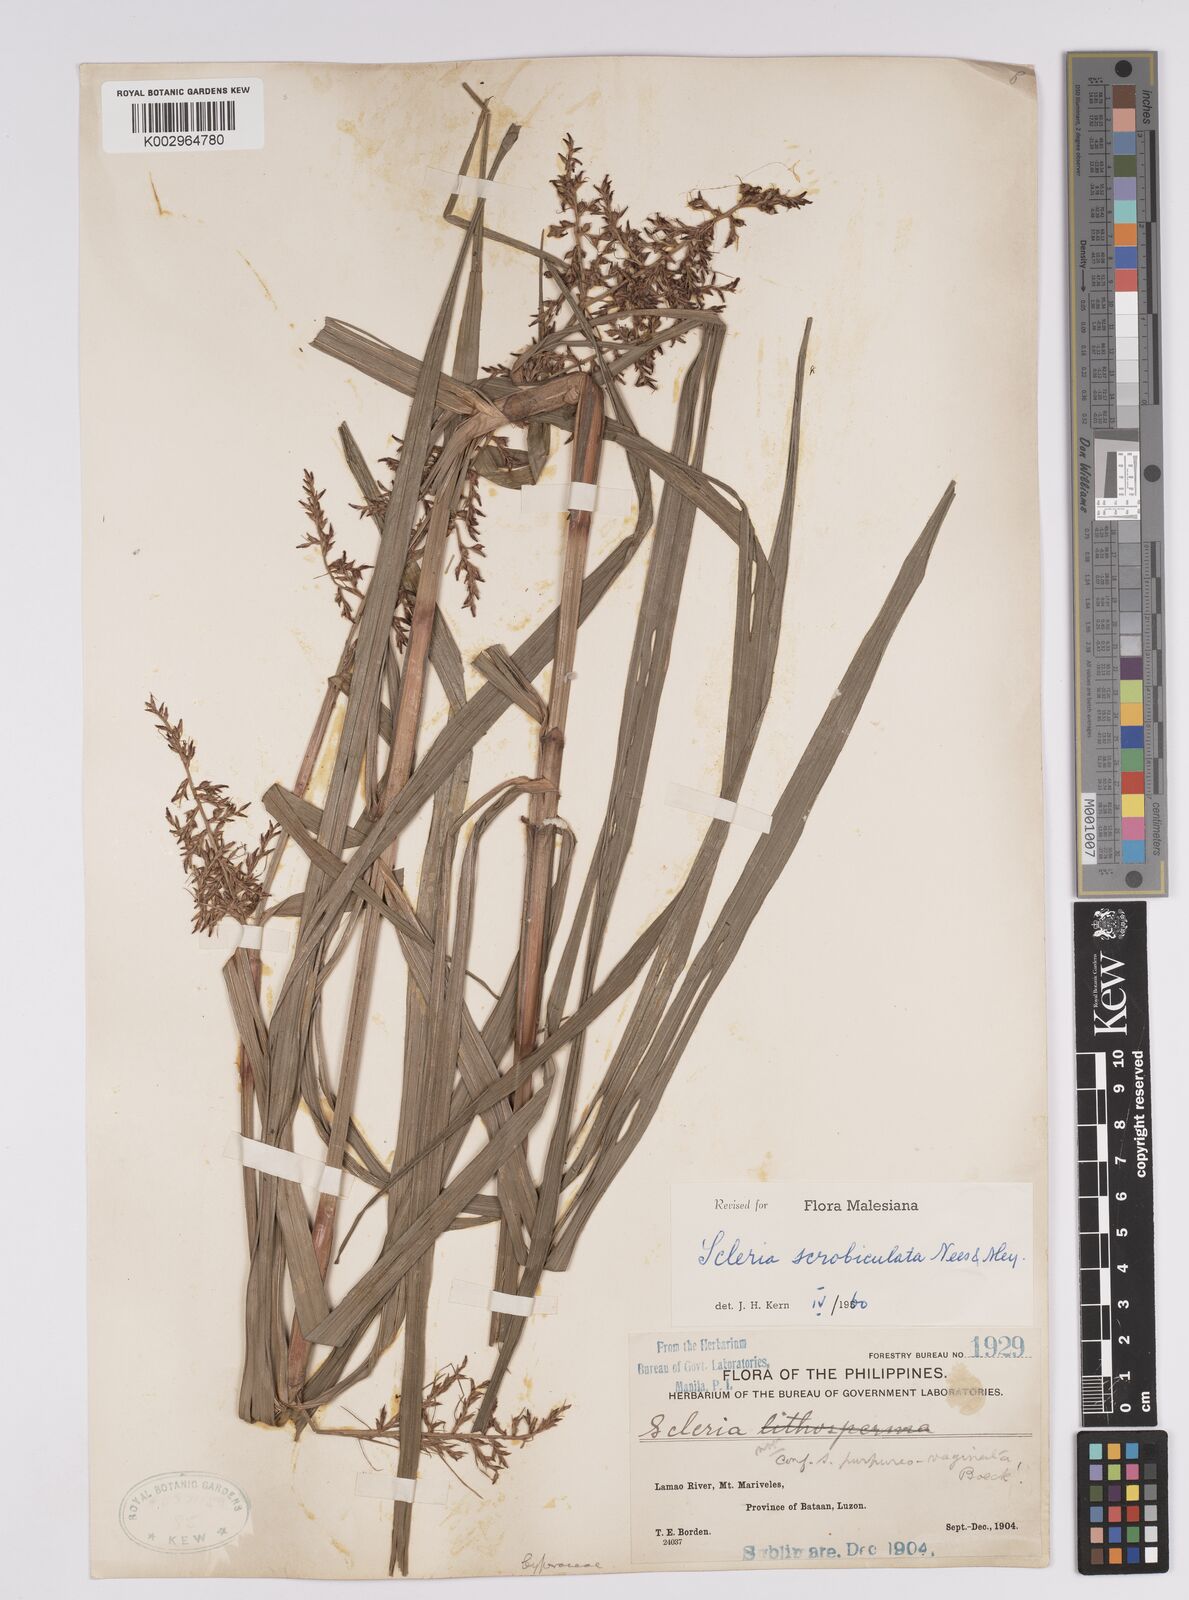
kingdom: Plantae
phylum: Tracheophyta
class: Liliopsida
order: Poales
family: Cyperaceae
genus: Scleria
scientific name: Scleria scrobiculata
